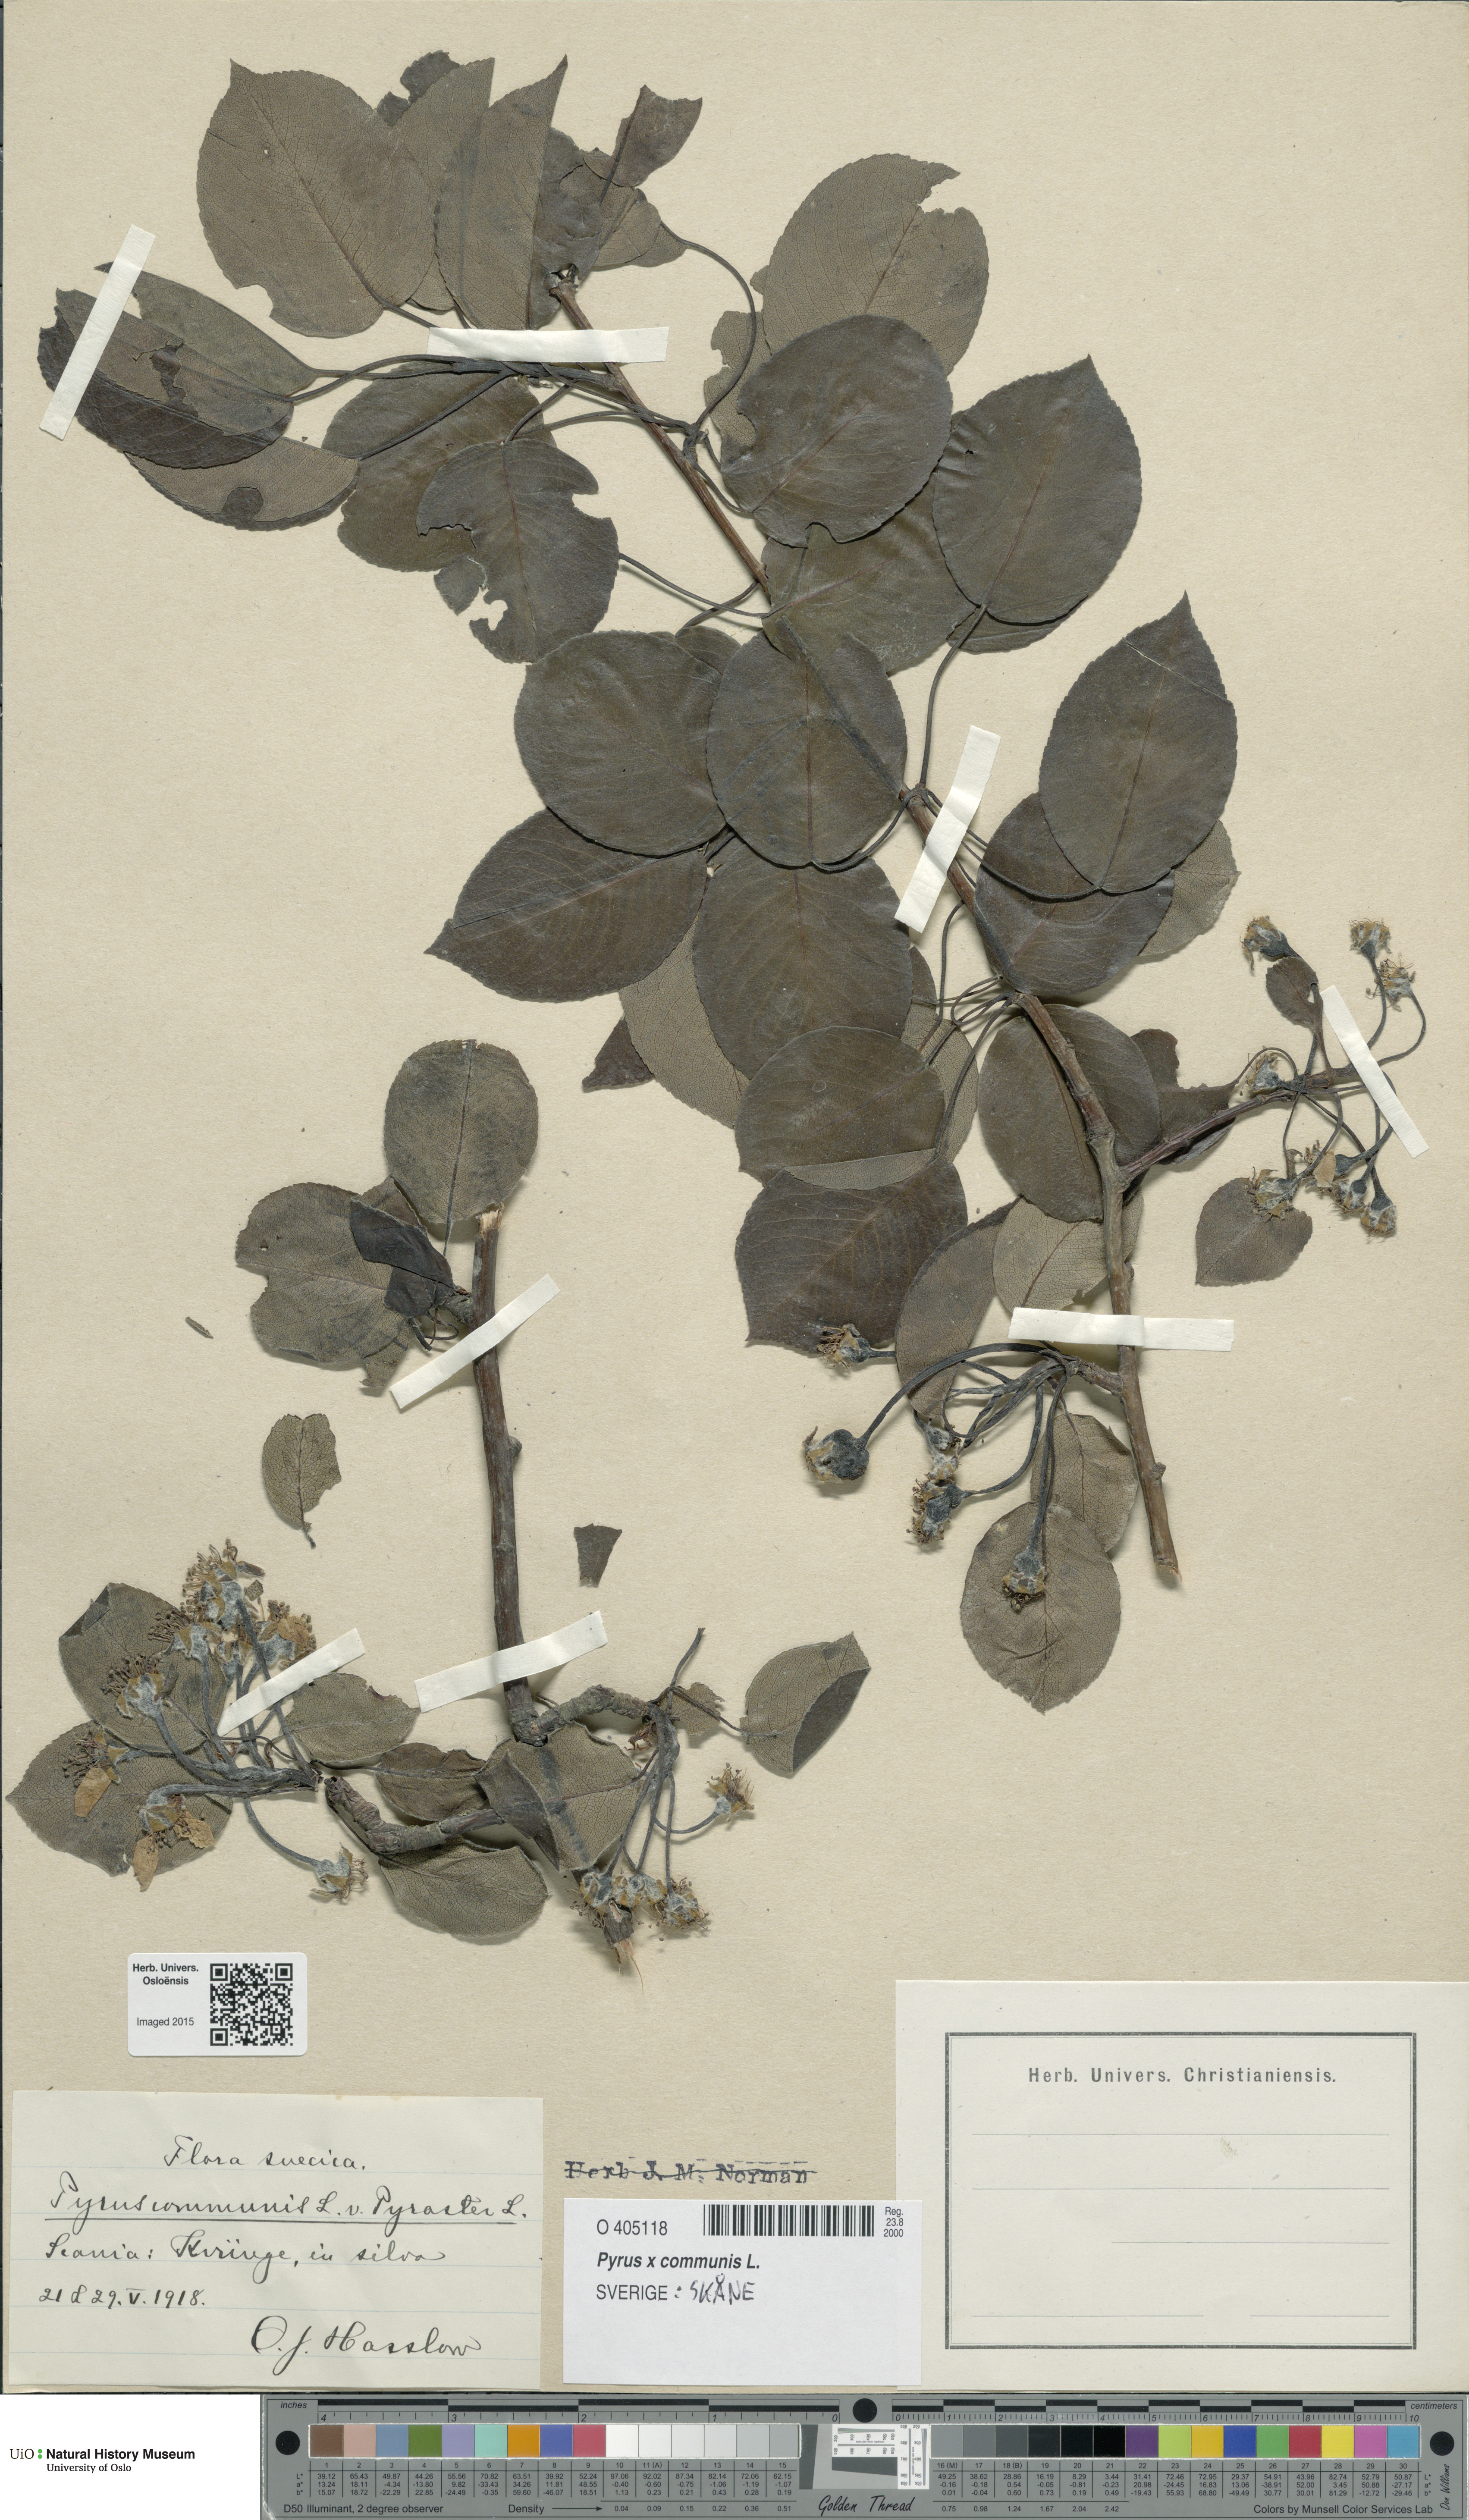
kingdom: Plantae
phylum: Tracheophyta
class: Magnoliopsida
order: Rosales
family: Rosaceae
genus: Pyrus
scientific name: Pyrus communis
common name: Pear
